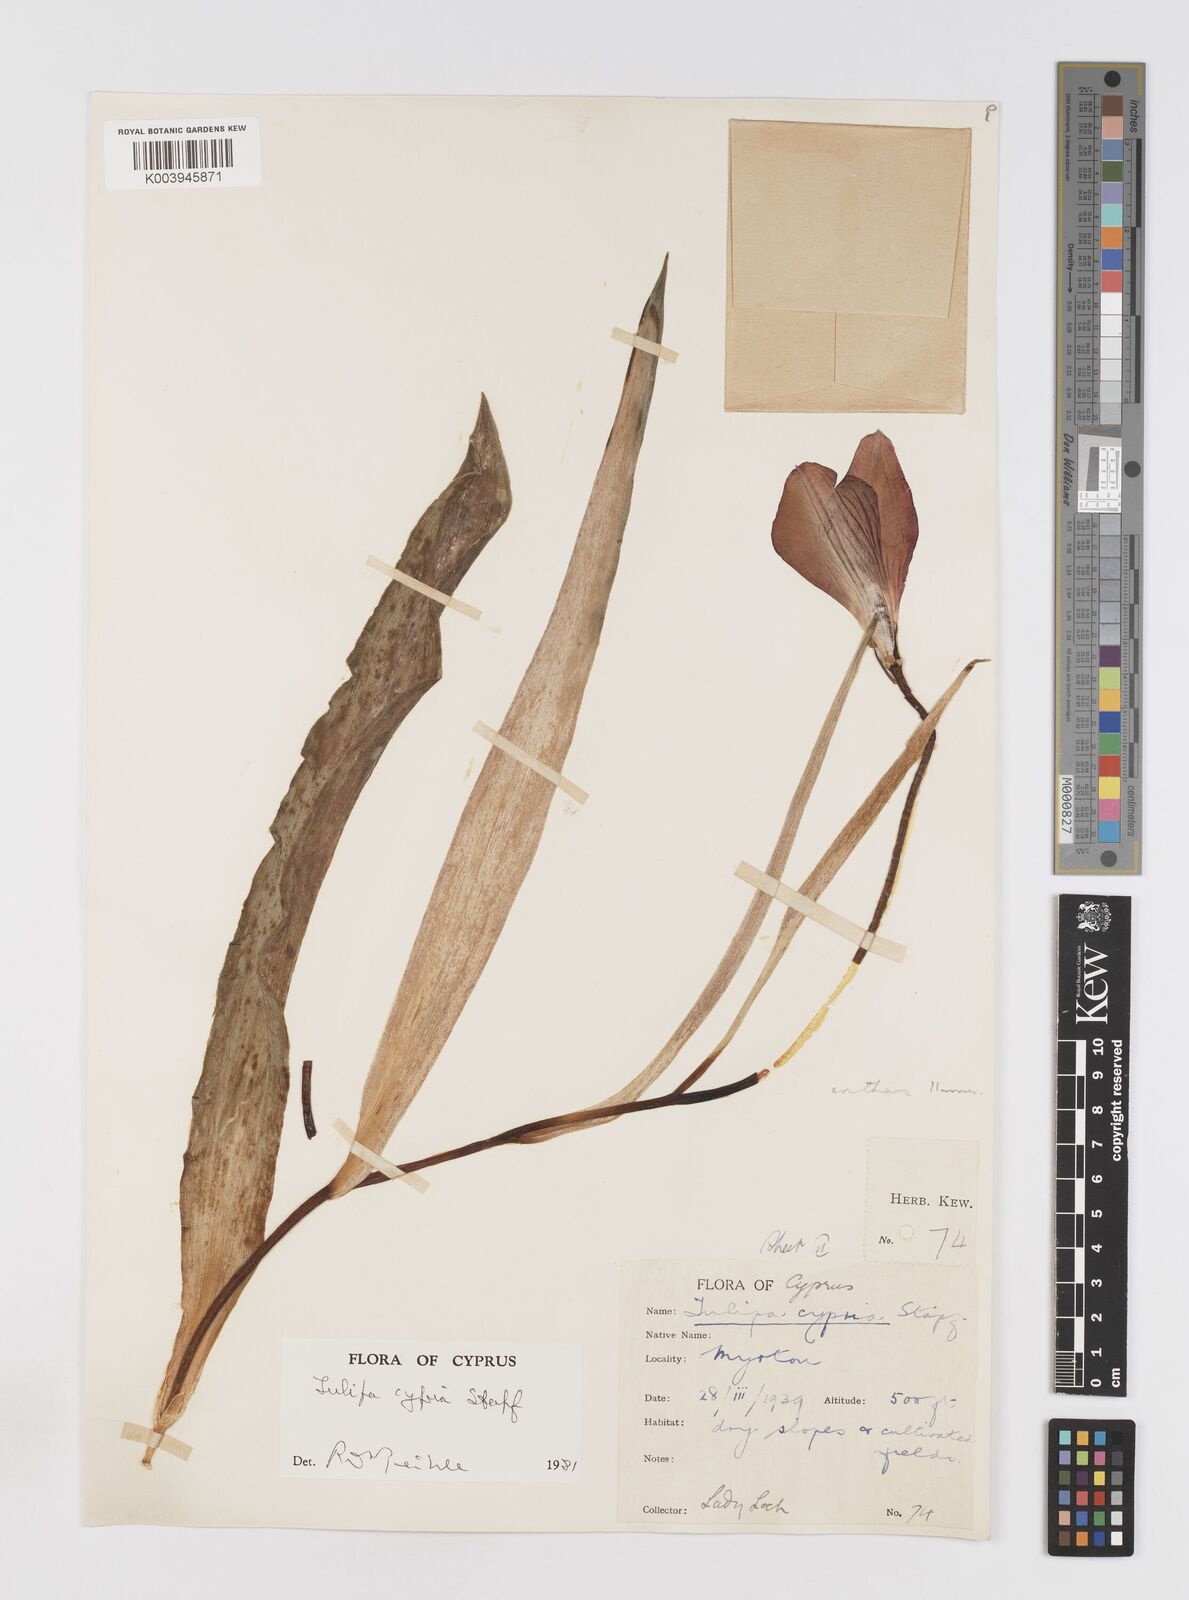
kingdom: Plantae
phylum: Tracheophyta
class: Liliopsida
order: Liliales
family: Liliaceae
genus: Tulipa
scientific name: Tulipa cypria
